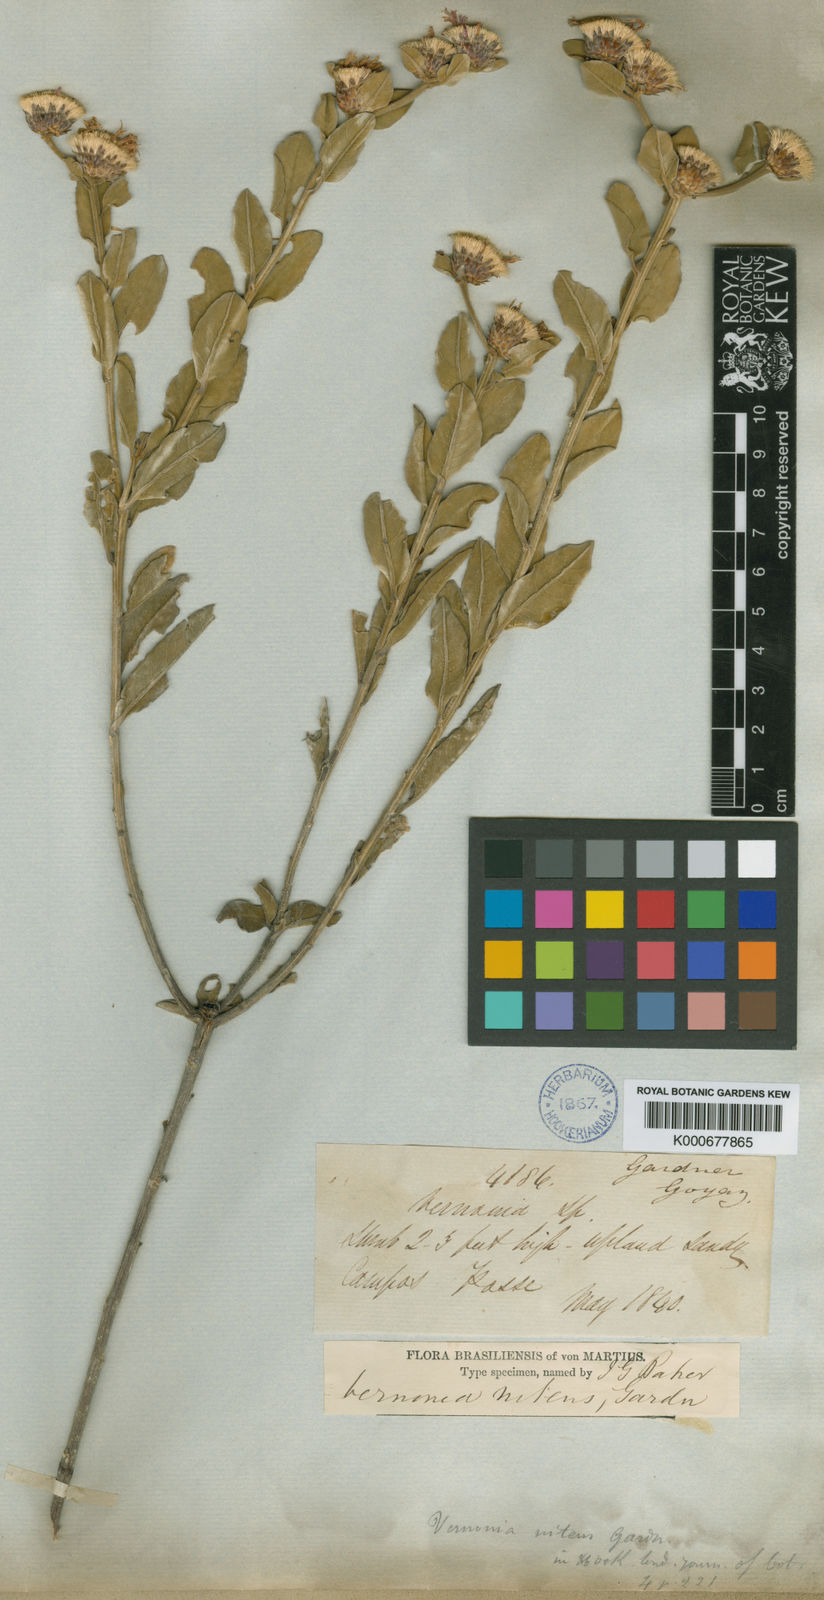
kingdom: Plantae
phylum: Tracheophyta
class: Magnoliopsida
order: Asterales
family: Asteraceae
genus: Lepidaploa
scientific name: Lepidaploa nitens
